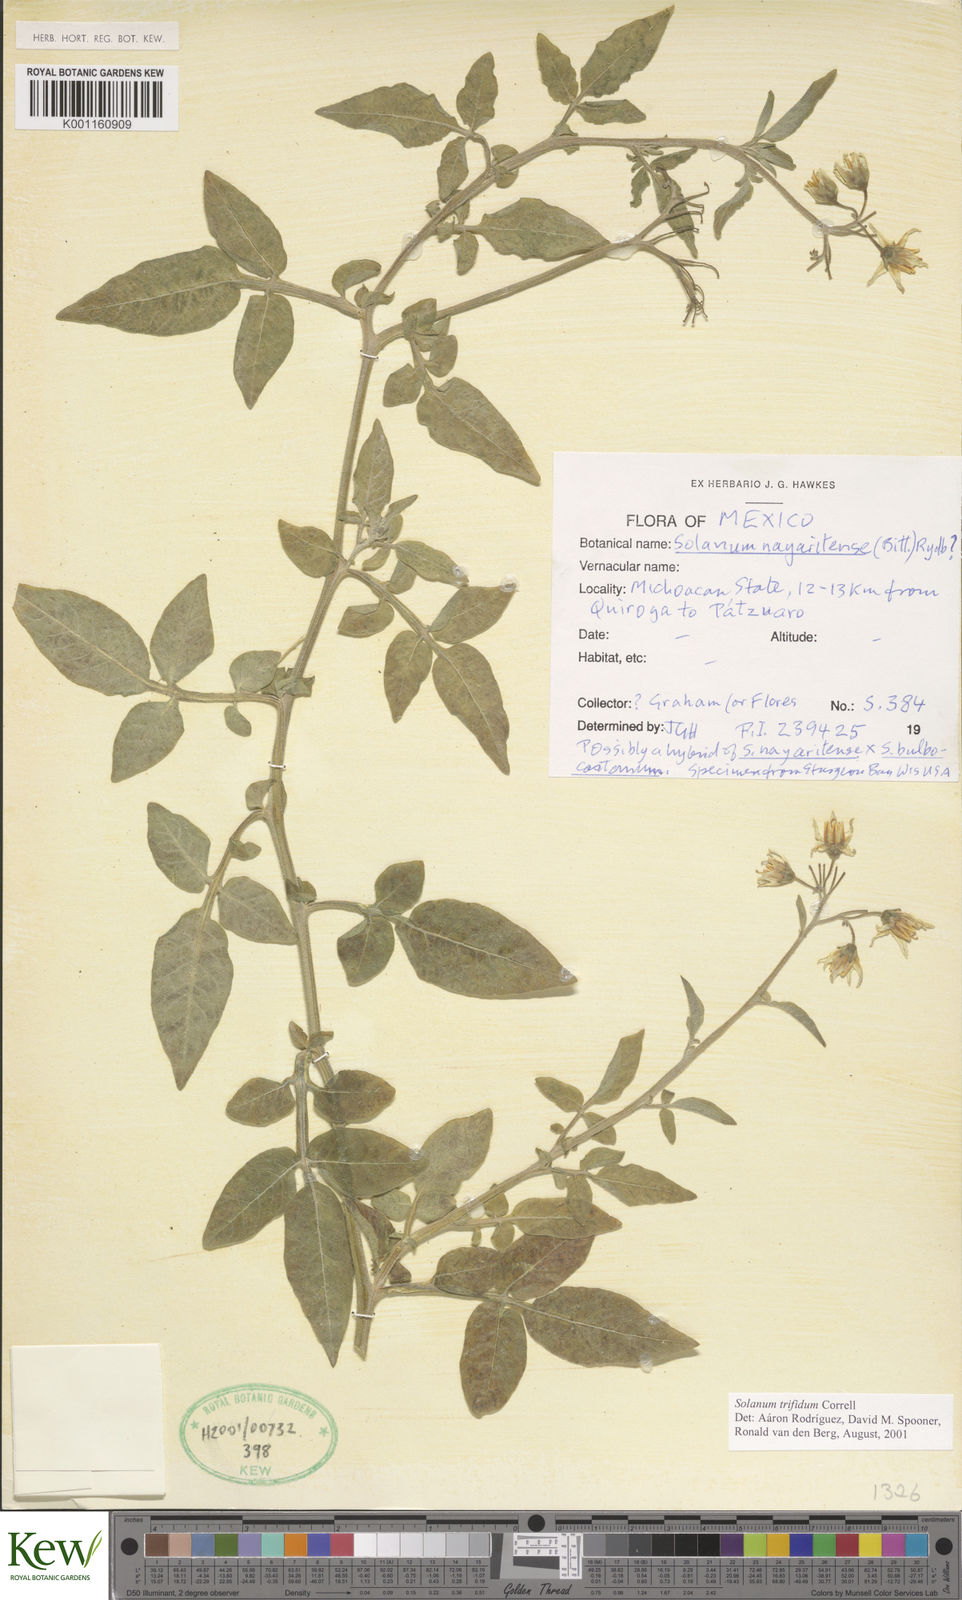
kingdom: Plantae
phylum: Tracheophyta
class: Magnoliopsida
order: Solanales
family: Solanaceae
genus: Solanum
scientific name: Solanum trifidum
